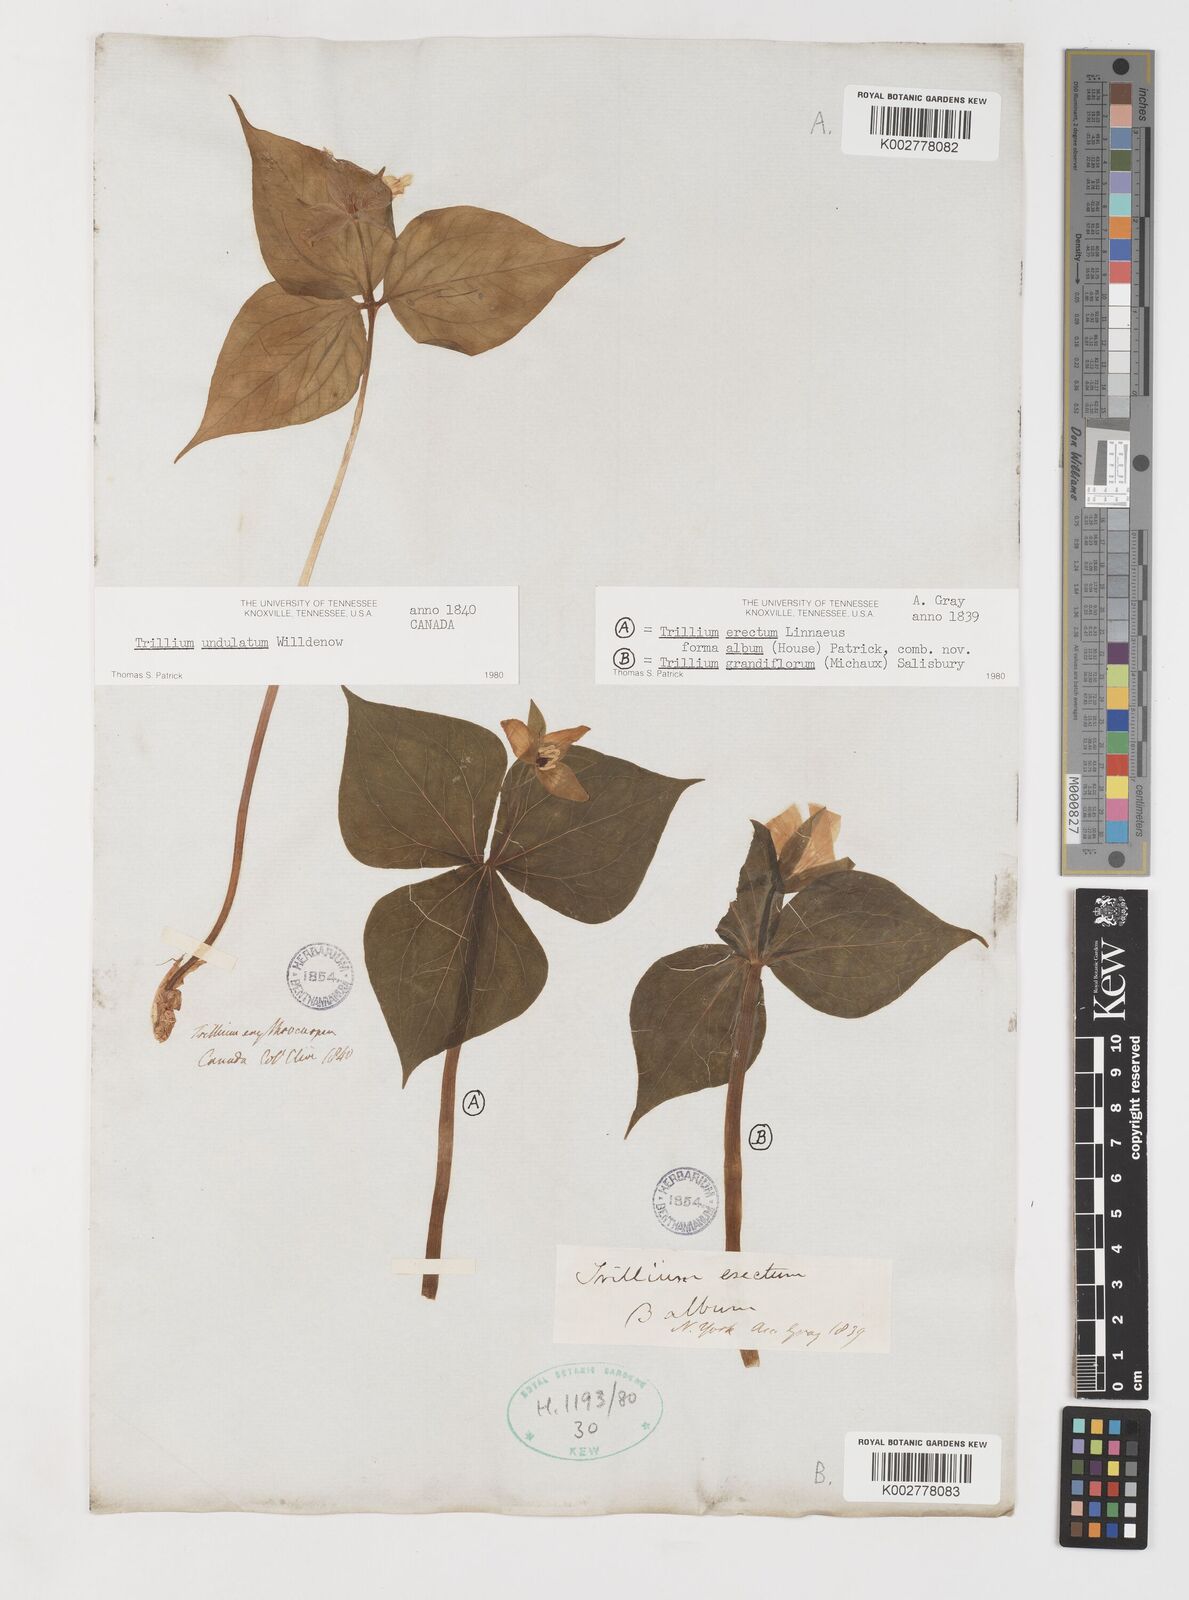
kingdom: Plantae
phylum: Tracheophyta
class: Liliopsida
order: Liliales
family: Melanthiaceae
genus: Trillium
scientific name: Trillium undulatum
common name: Paint trillium
